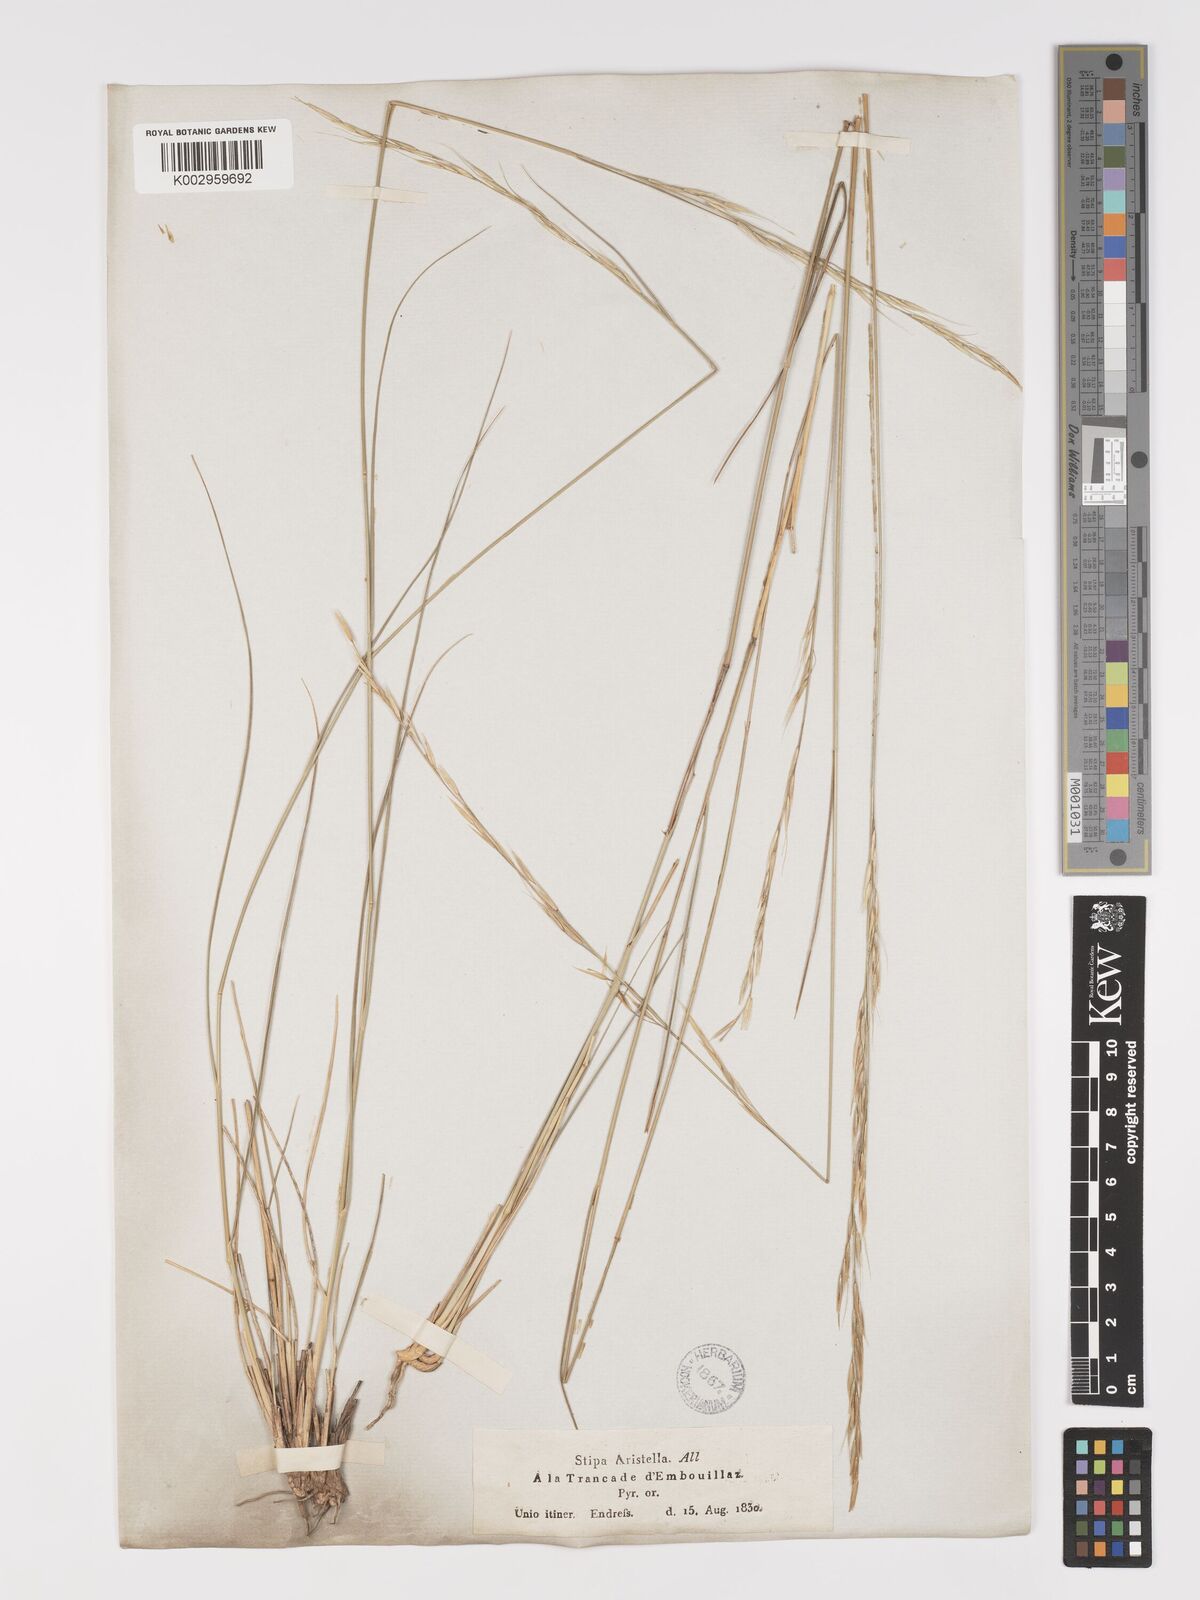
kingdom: Plantae
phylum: Tracheophyta
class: Liliopsida
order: Poales
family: Poaceae
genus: Achnatherum
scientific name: Achnatherum bromoides
